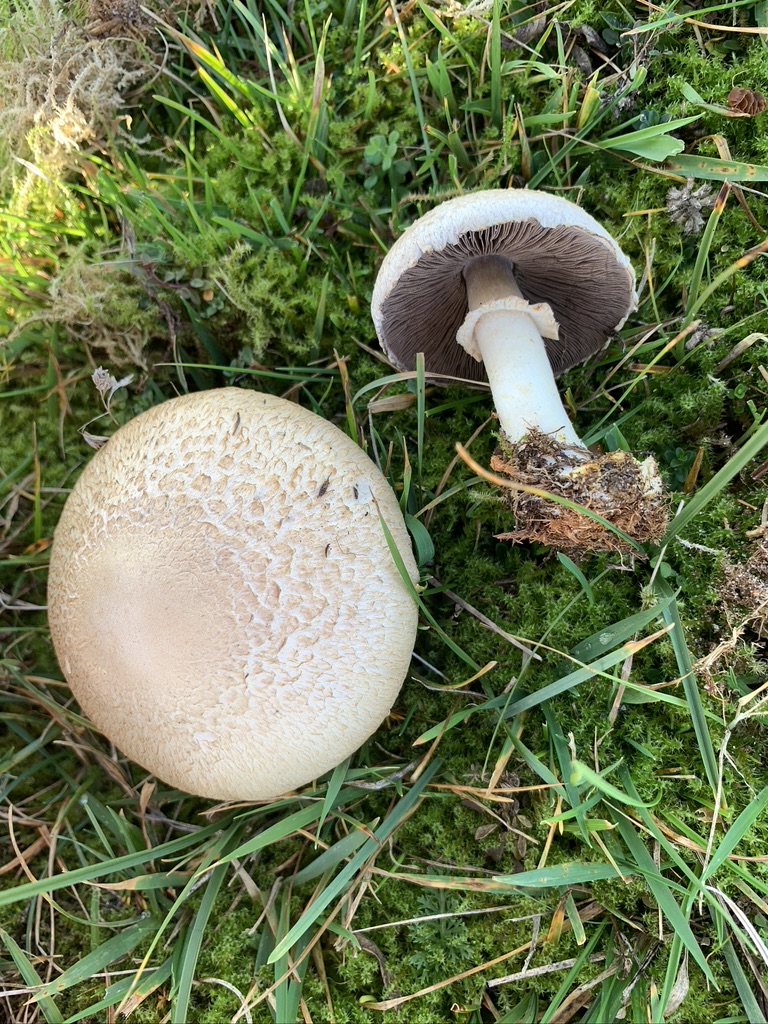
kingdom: Fungi
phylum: Basidiomycota
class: Agaricomycetes
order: Agaricales
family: Agaricaceae
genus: Agaricus
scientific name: Agaricus campestris
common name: mark-champignon
